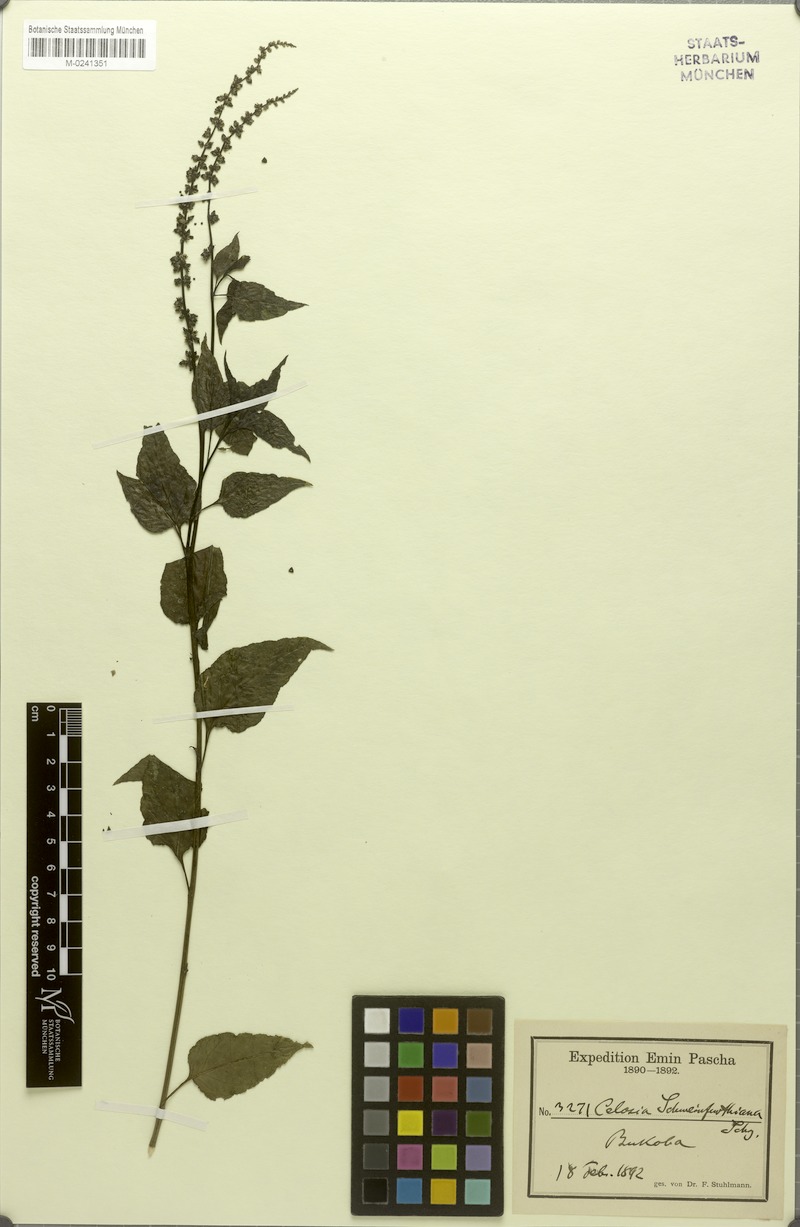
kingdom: Plantae
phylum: Tracheophyta
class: Magnoliopsida
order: Caryophyllales
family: Amaranthaceae
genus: Celosia
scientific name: Celosia schweinfurthiana
